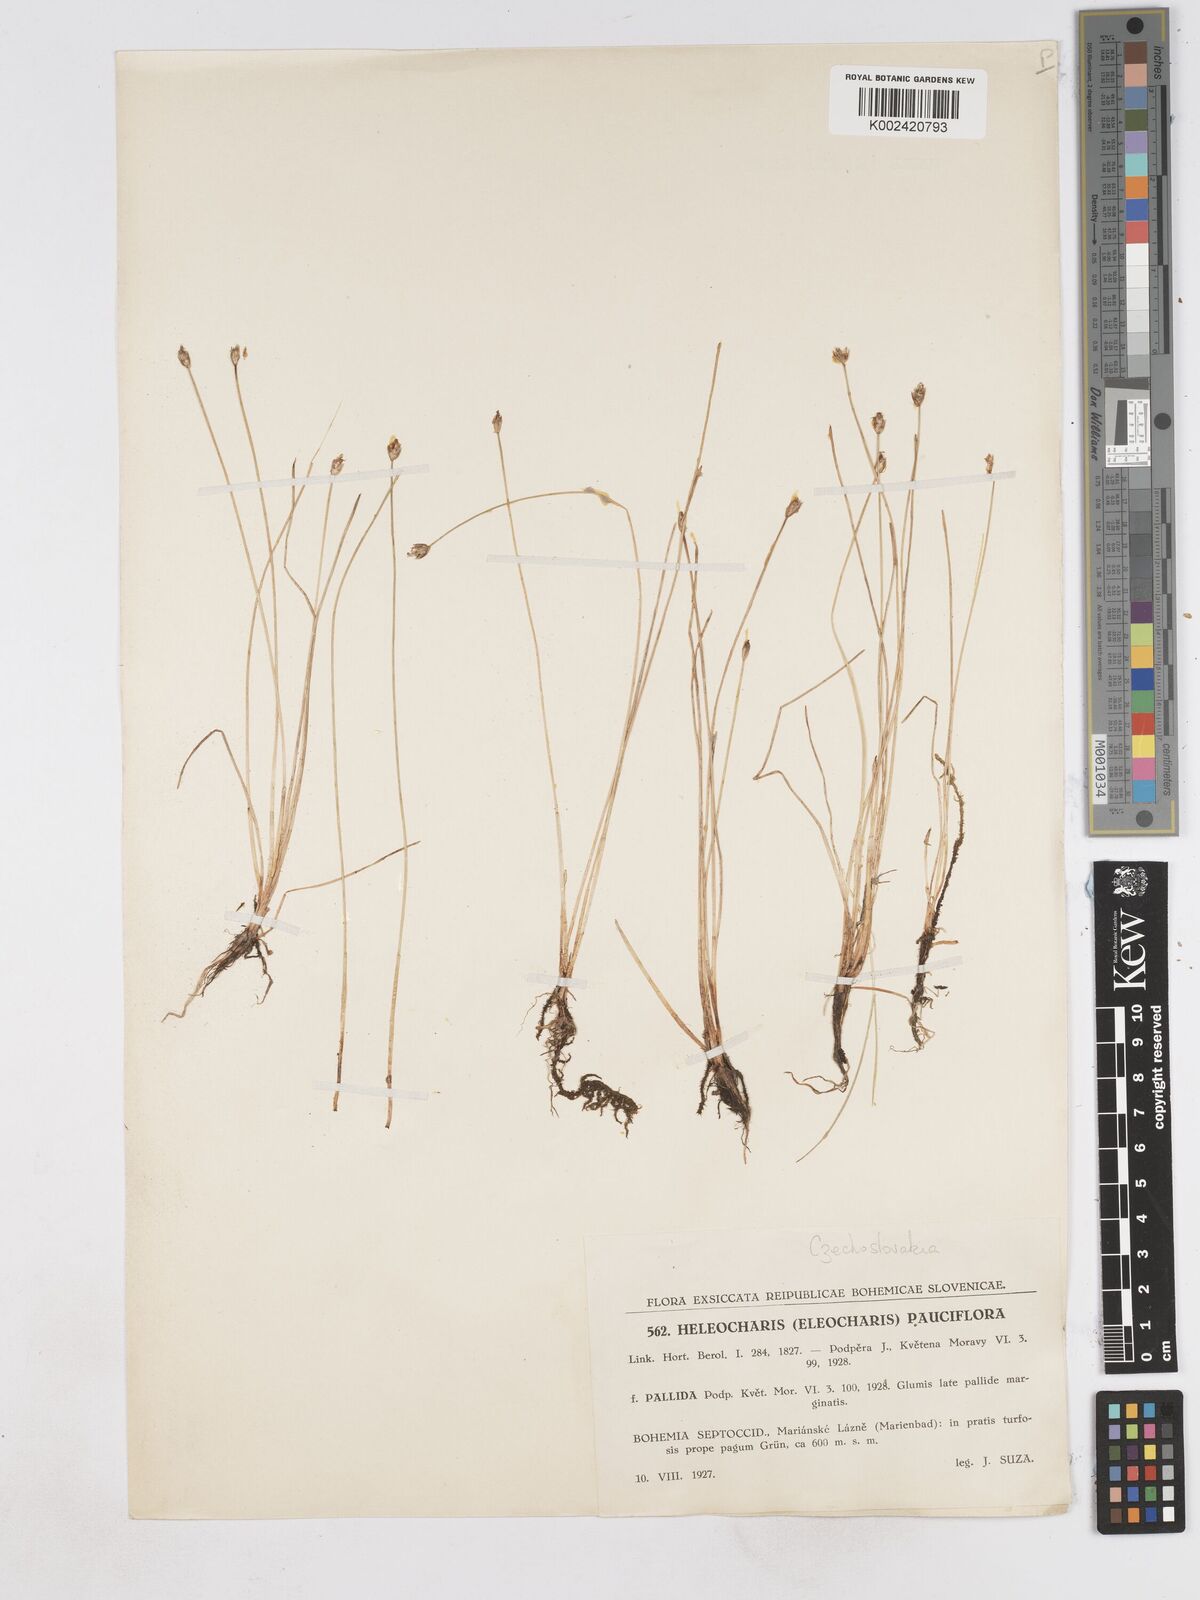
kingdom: Plantae
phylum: Tracheophyta
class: Liliopsida
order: Poales
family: Cyperaceae
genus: Eleocharis
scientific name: Eleocharis quinqueflora
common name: Few-flowered spike-rush
